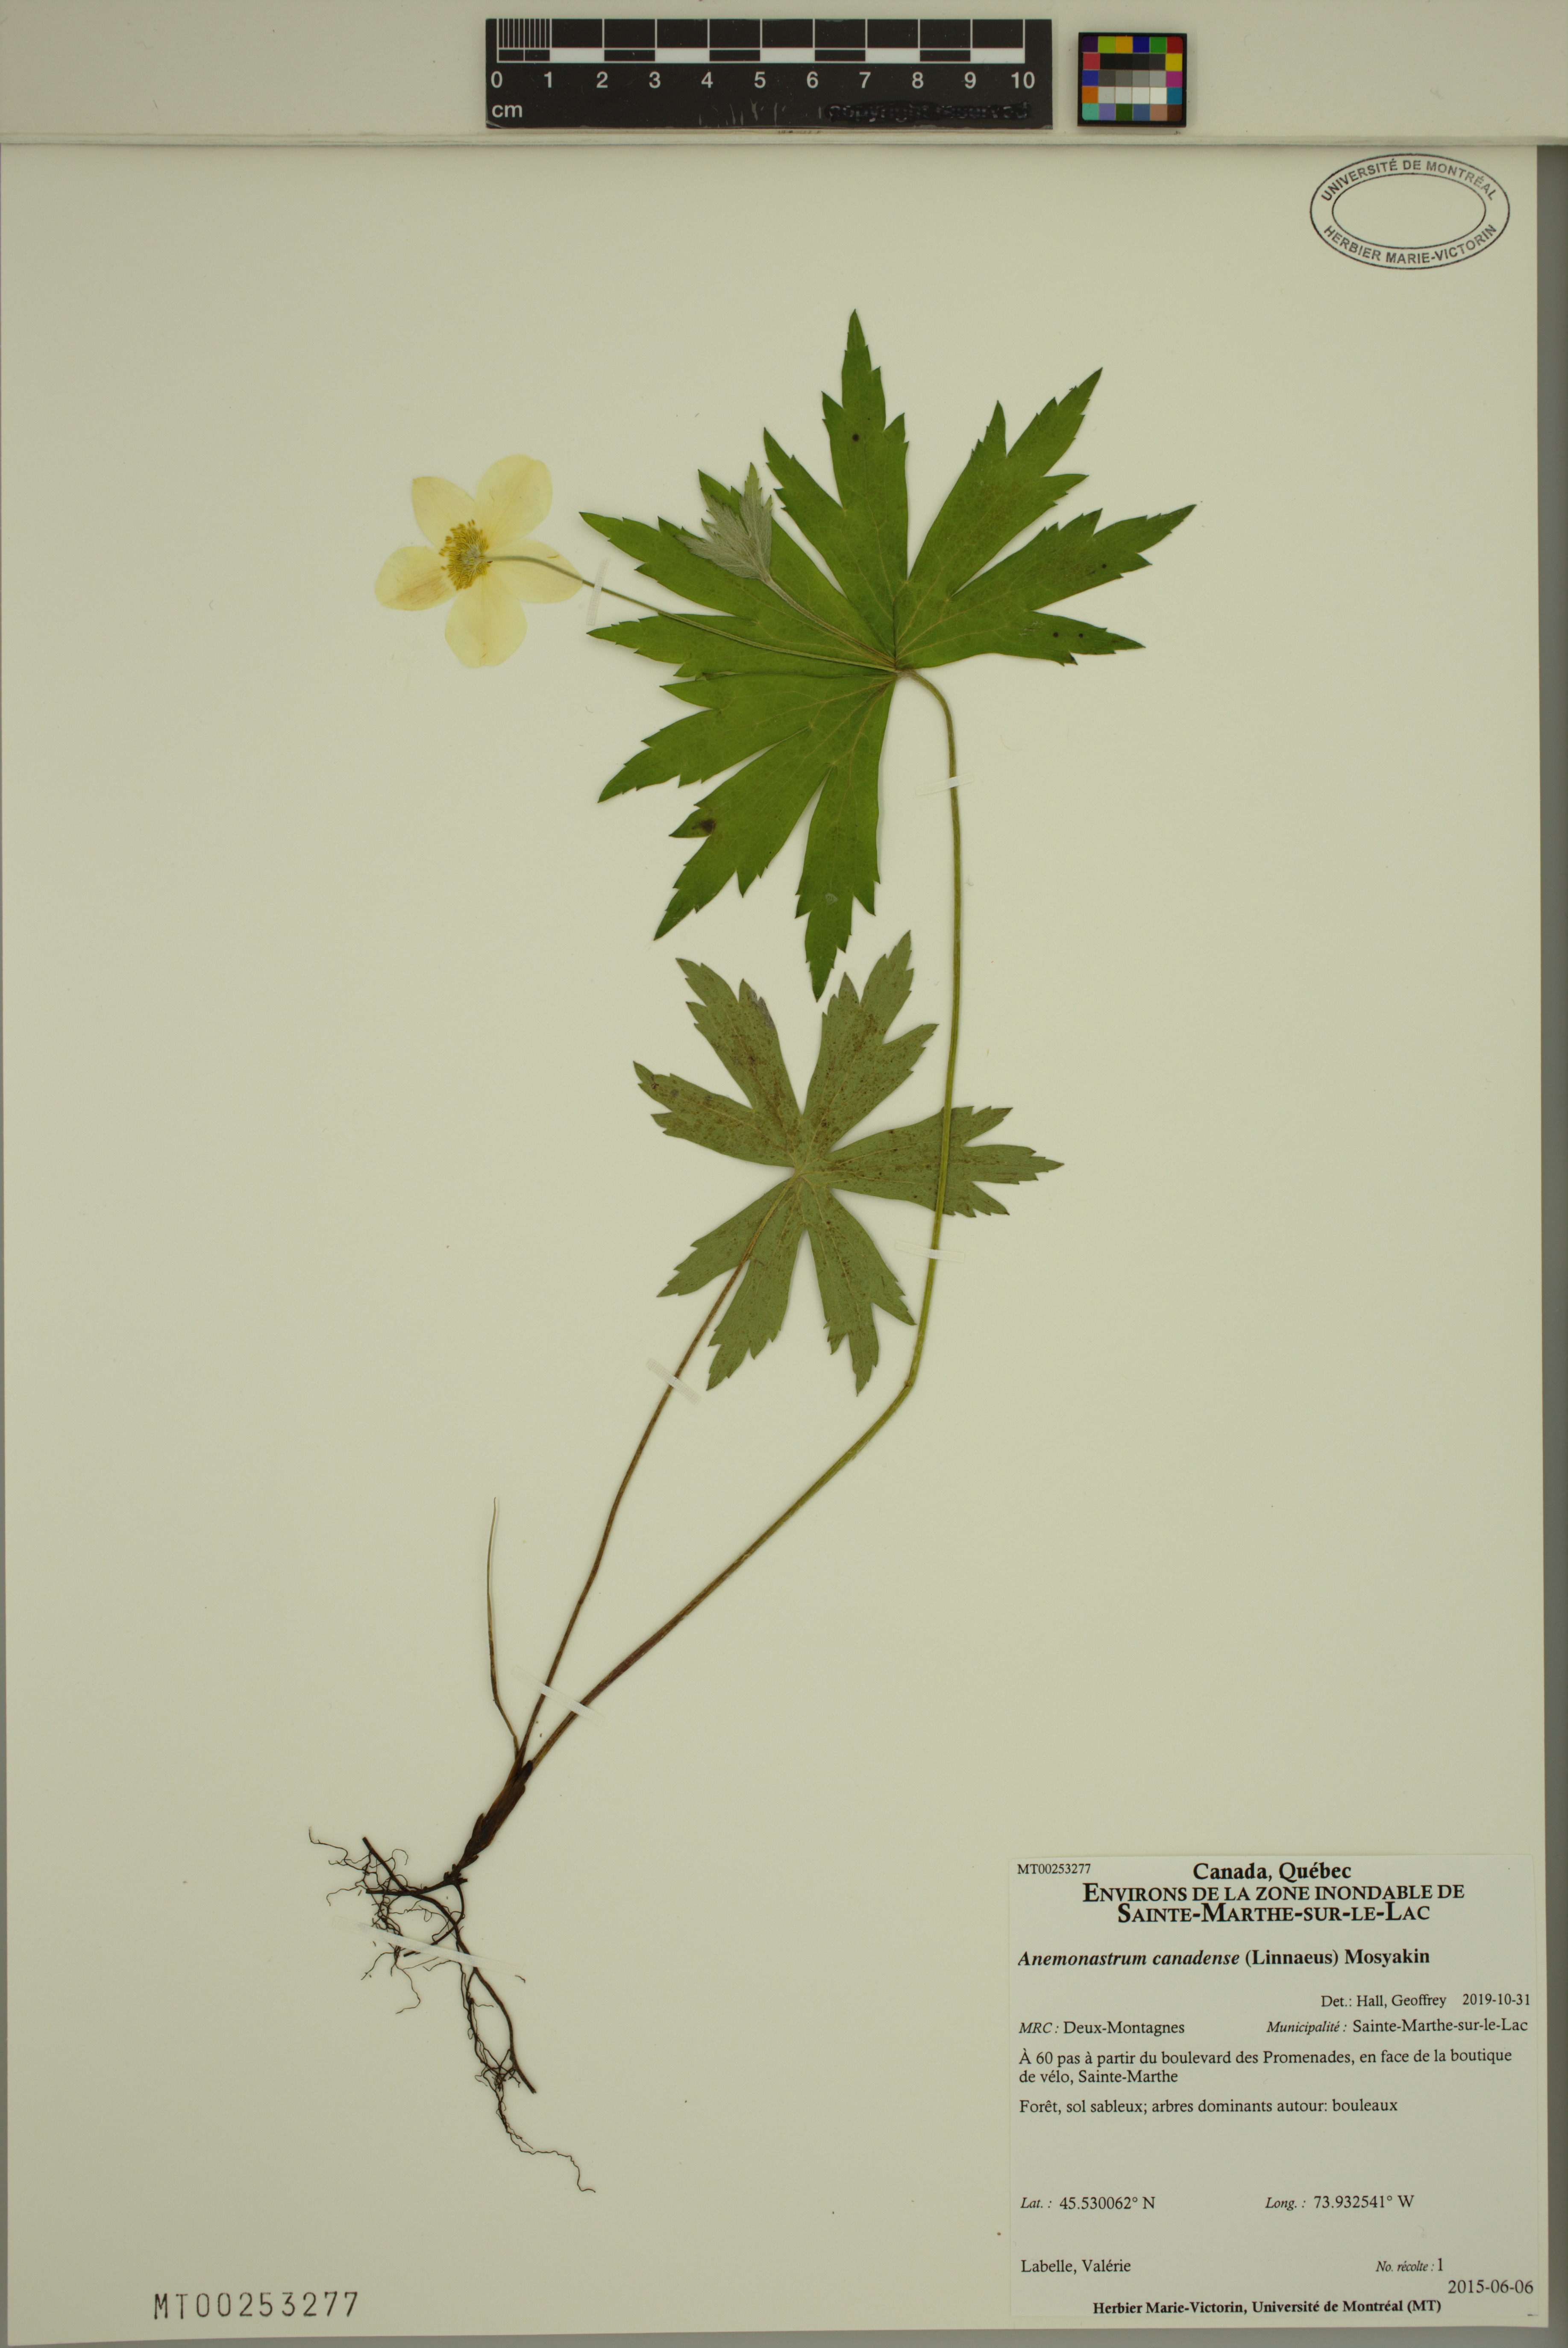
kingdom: Plantae
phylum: Tracheophyta
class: Magnoliopsida
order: Ranunculales
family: Ranunculaceae
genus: Anemonastrum
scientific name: Anemonastrum canadense
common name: Canada anemone
